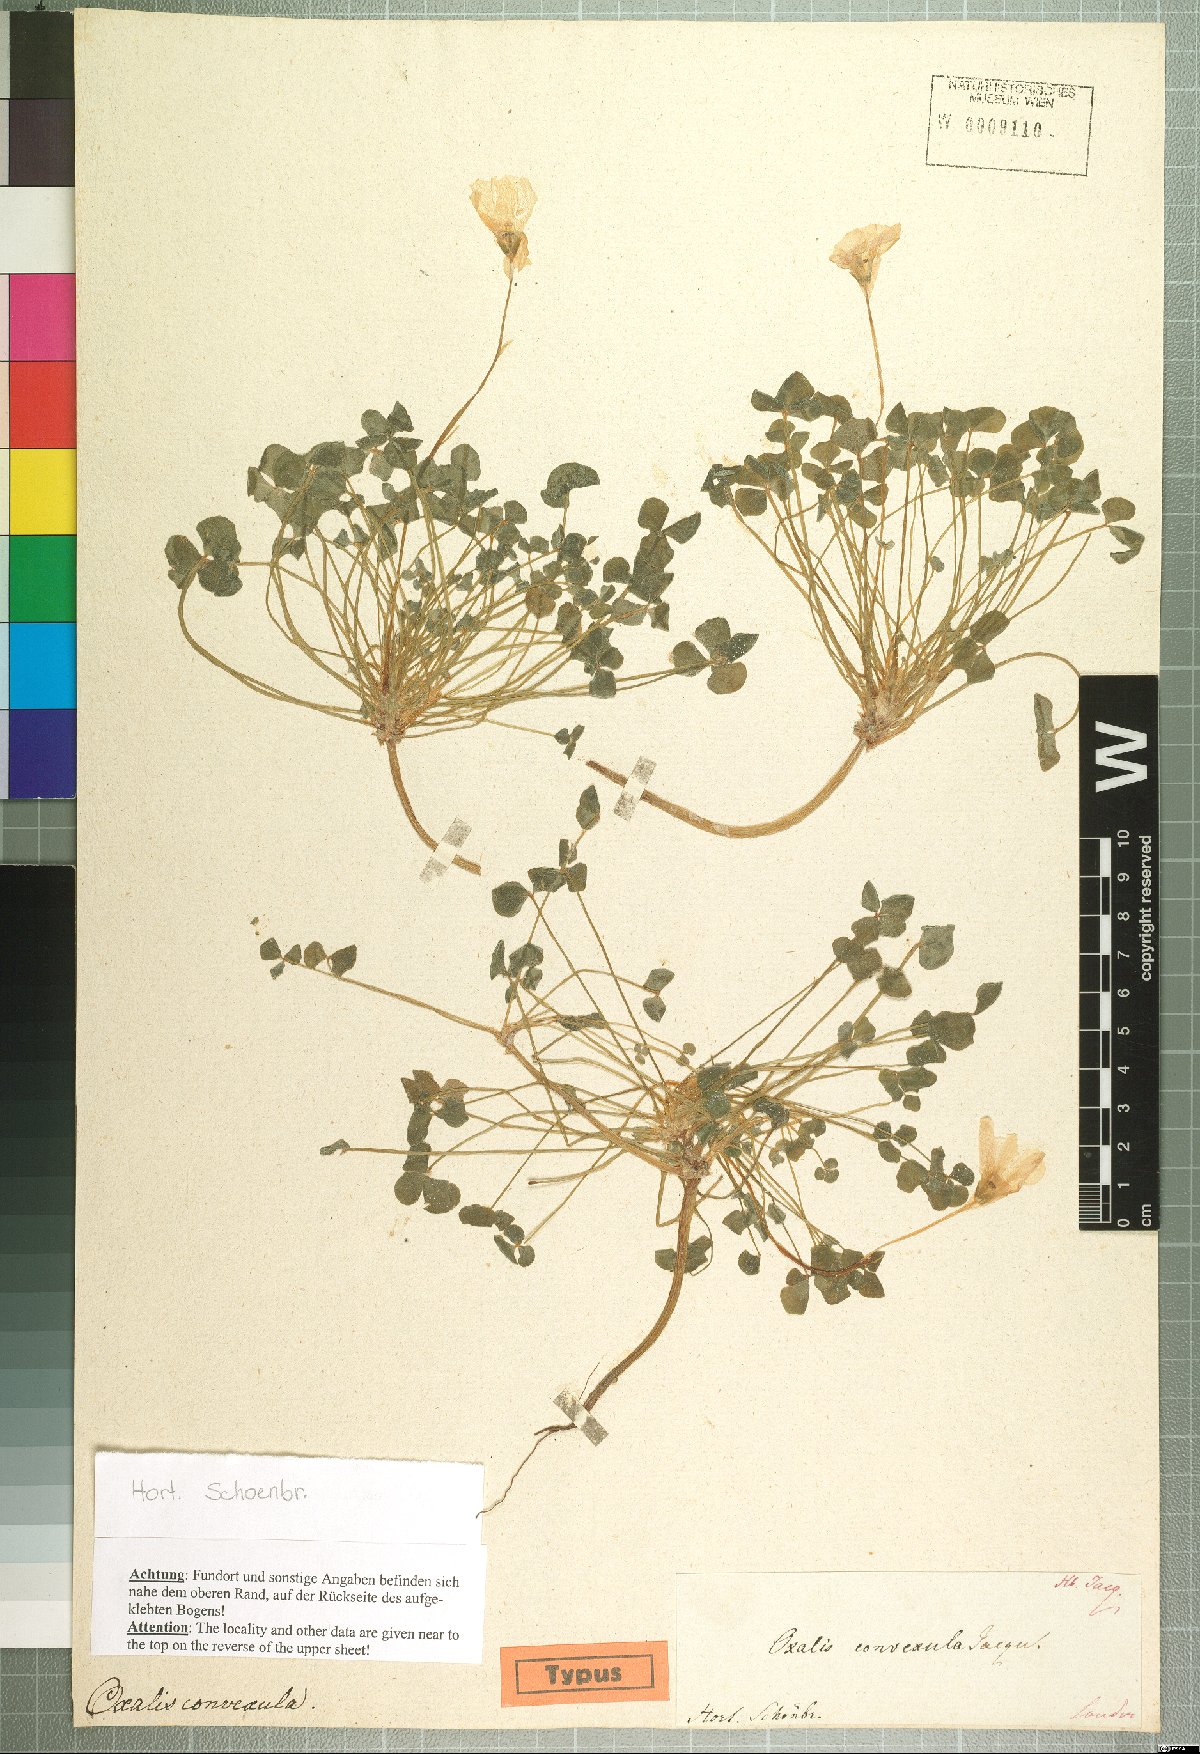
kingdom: Plantae
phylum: Tracheophyta
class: Magnoliopsida
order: Oxalidales
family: Oxalidaceae
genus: Oxalis
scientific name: Oxalis convexula
